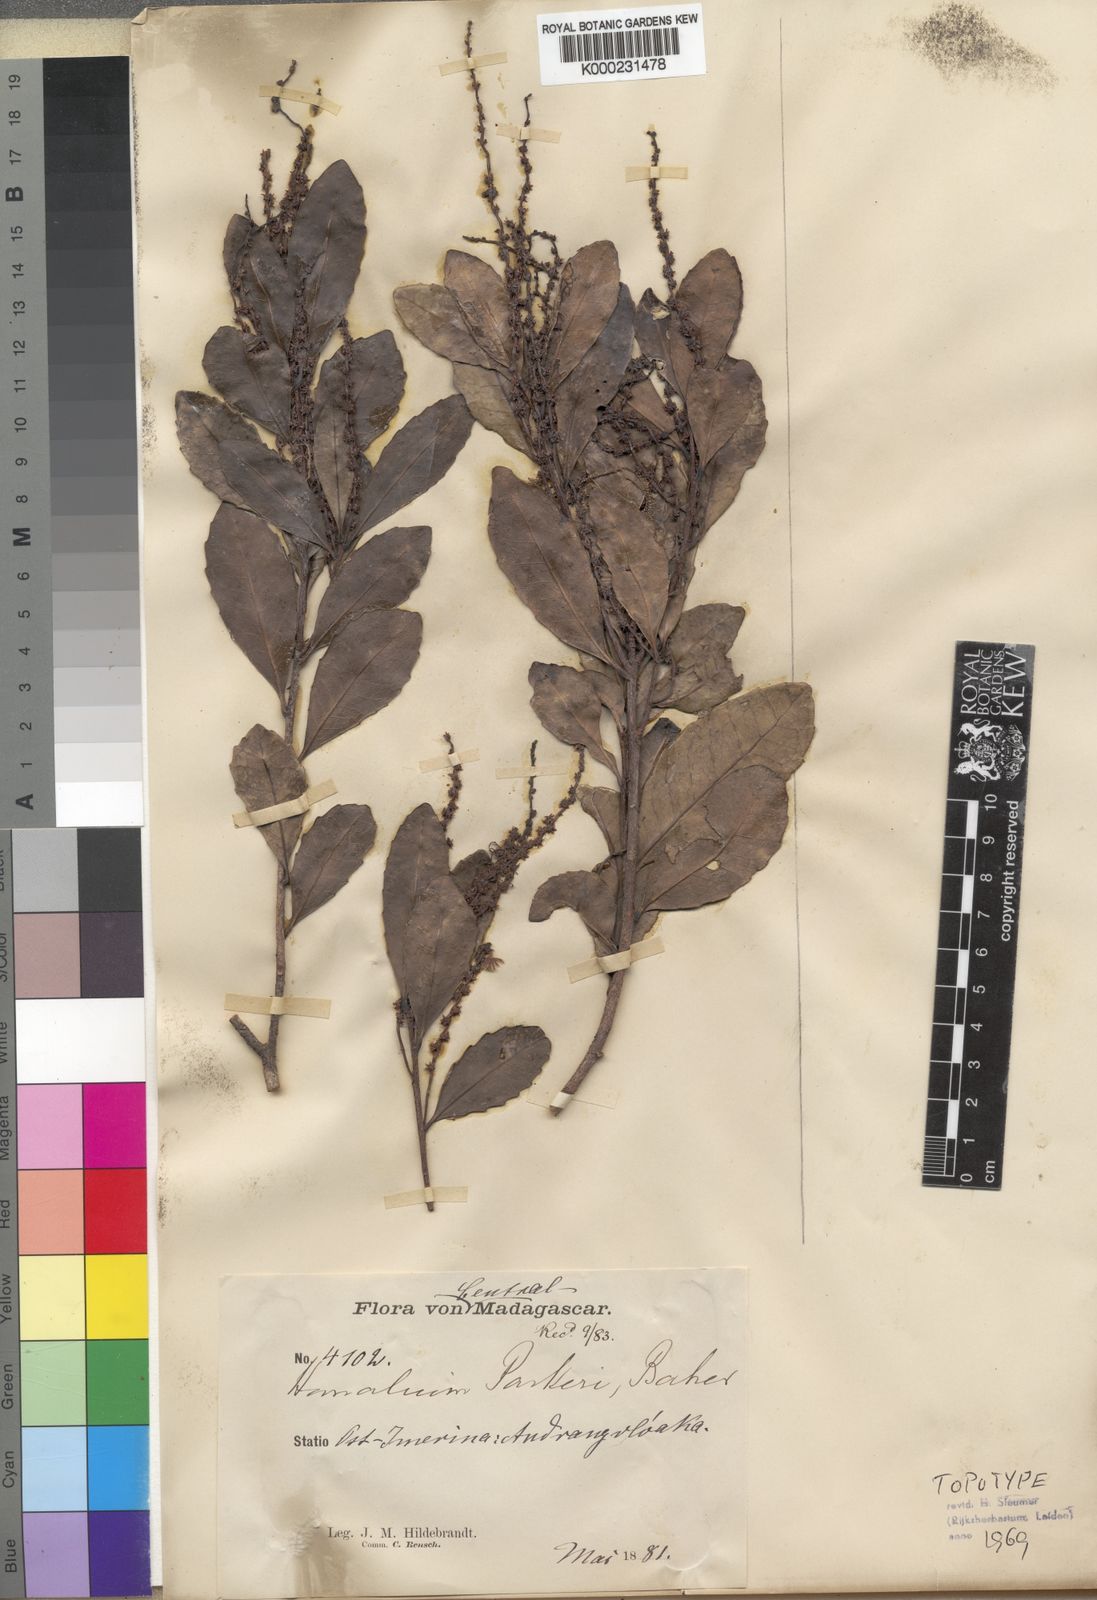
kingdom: Plantae
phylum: Tracheophyta
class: Magnoliopsida
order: Malpighiales
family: Salicaceae
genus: Homalium
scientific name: Homalium parkeri
